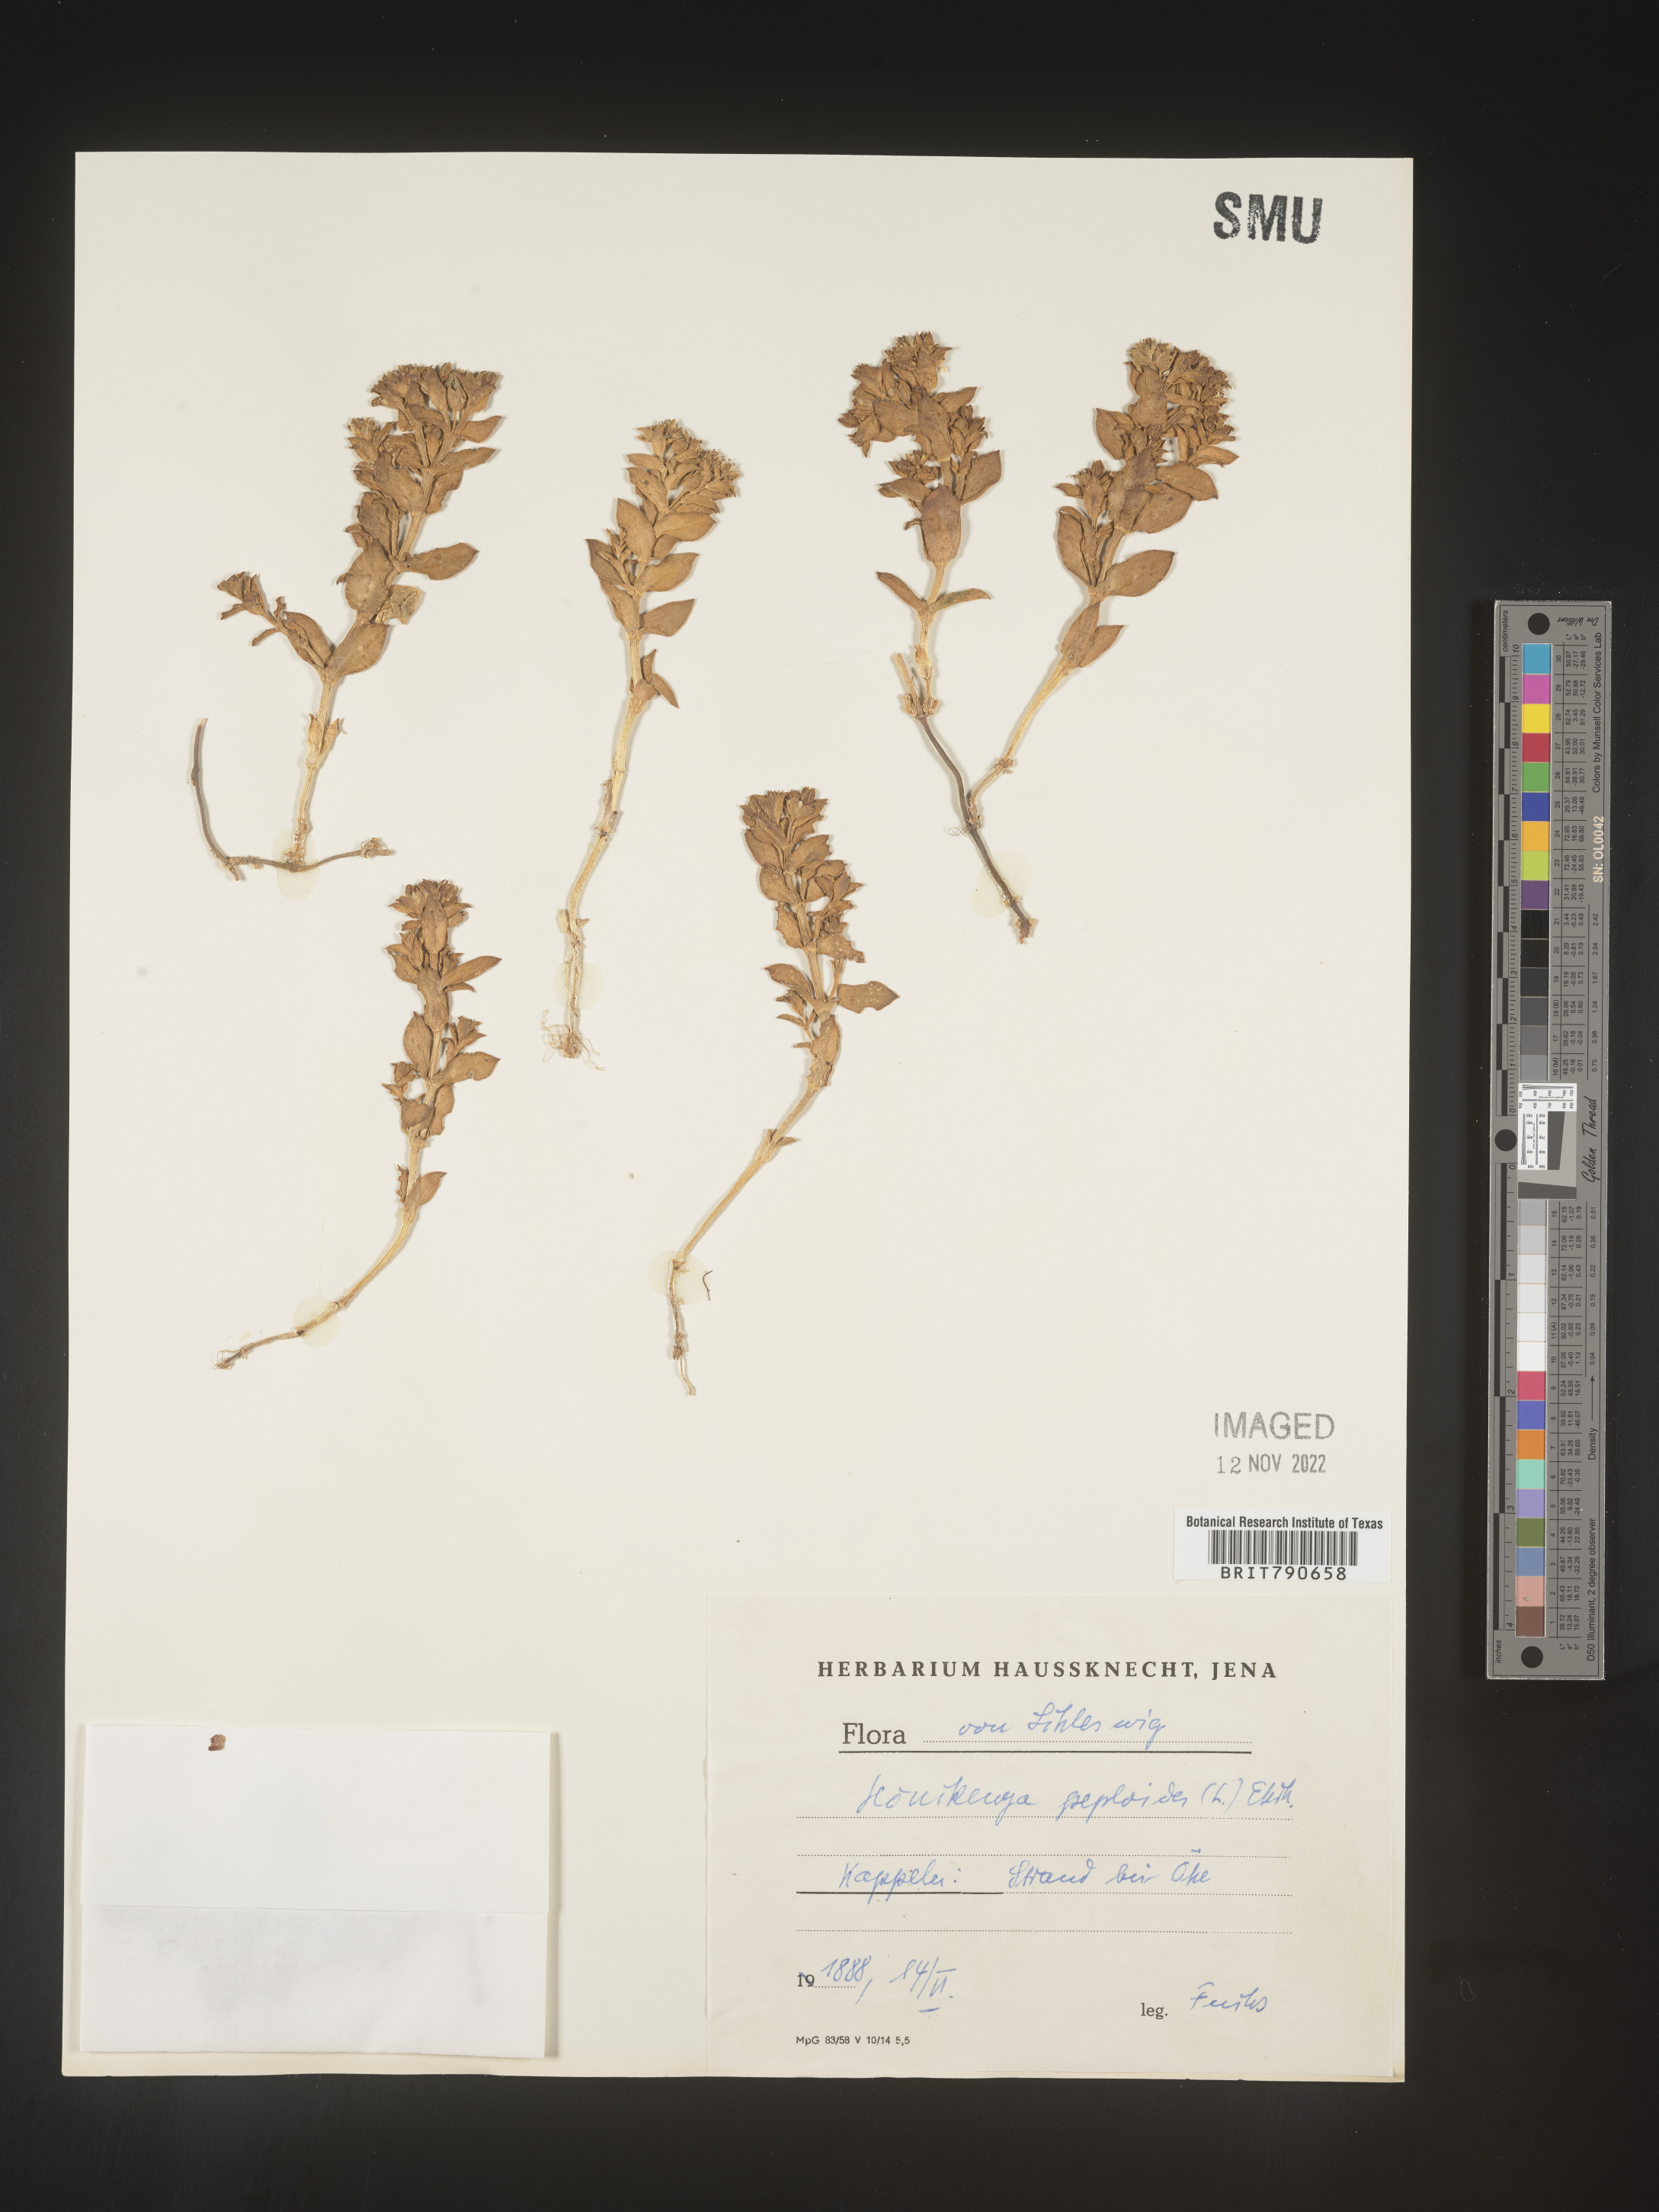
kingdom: Plantae
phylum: Tracheophyta
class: Magnoliopsida
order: Malvales
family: Malvaceae
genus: Clappertonia
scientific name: Clappertonia
